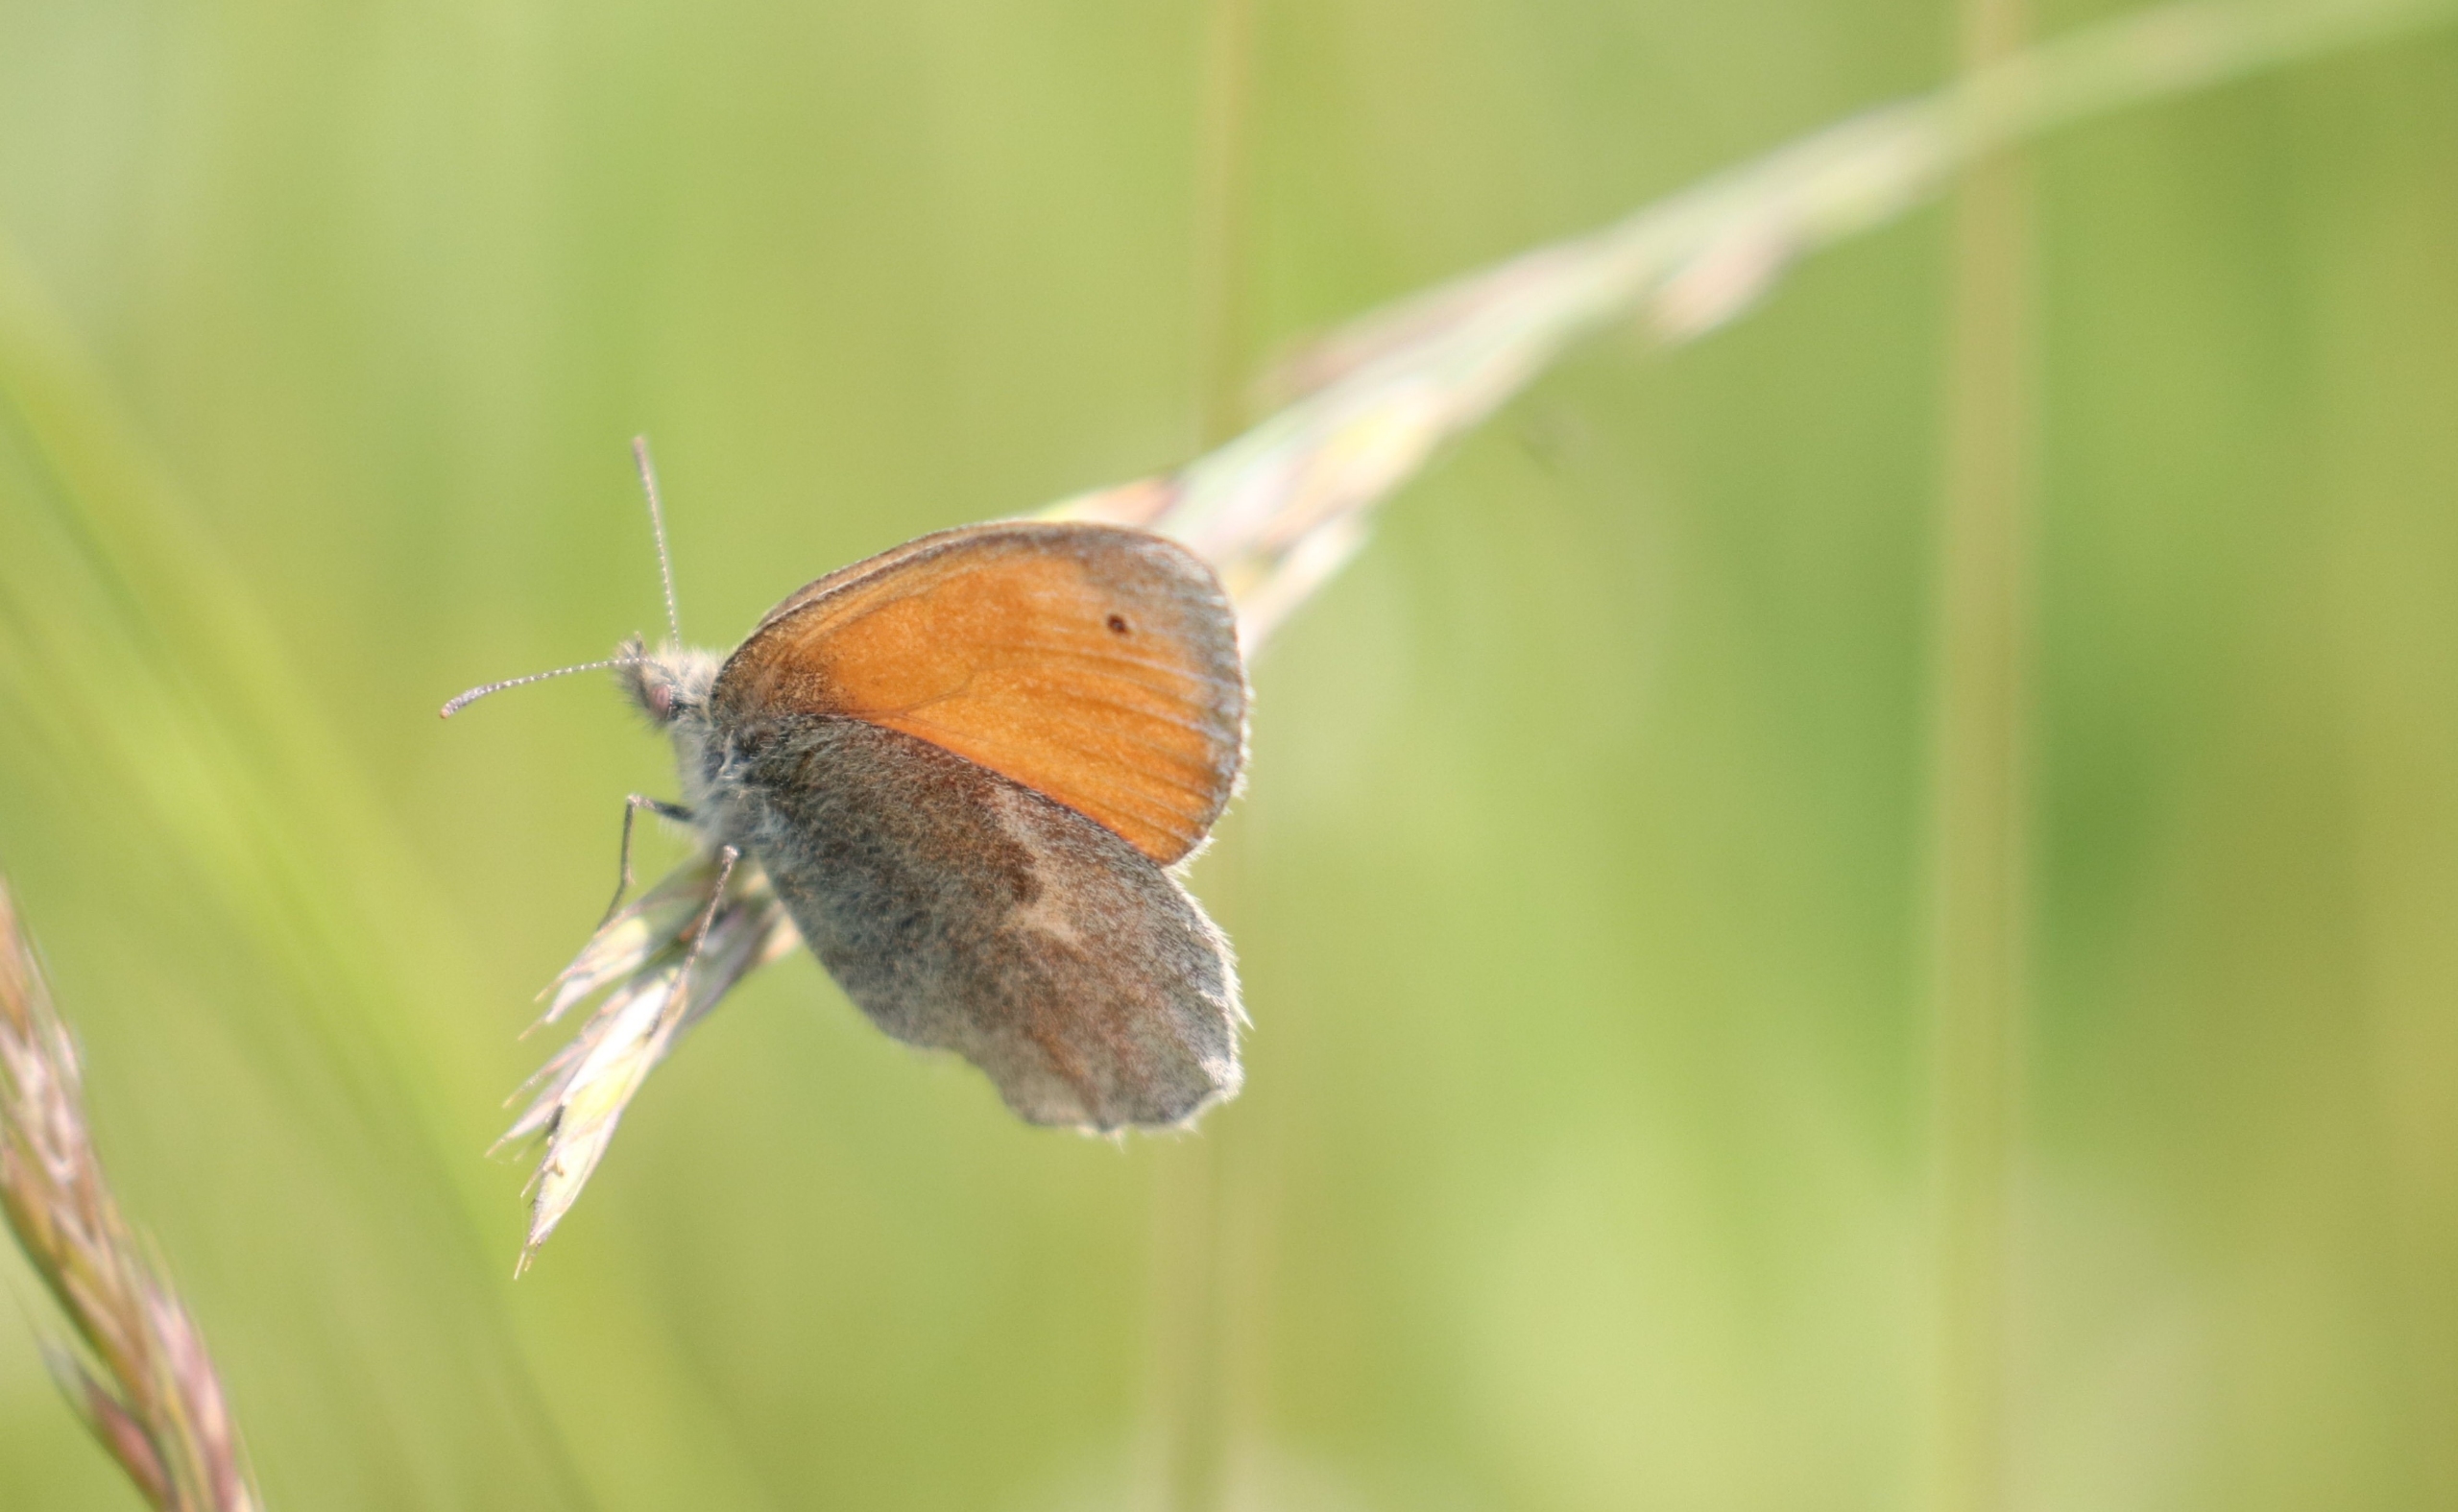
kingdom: Animalia
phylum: Arthropoda
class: Insecta
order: Lepidoptera
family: Nymphalidae
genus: Coenonympha
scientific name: Coenonympha pamphilus
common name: Okkergul randøje
